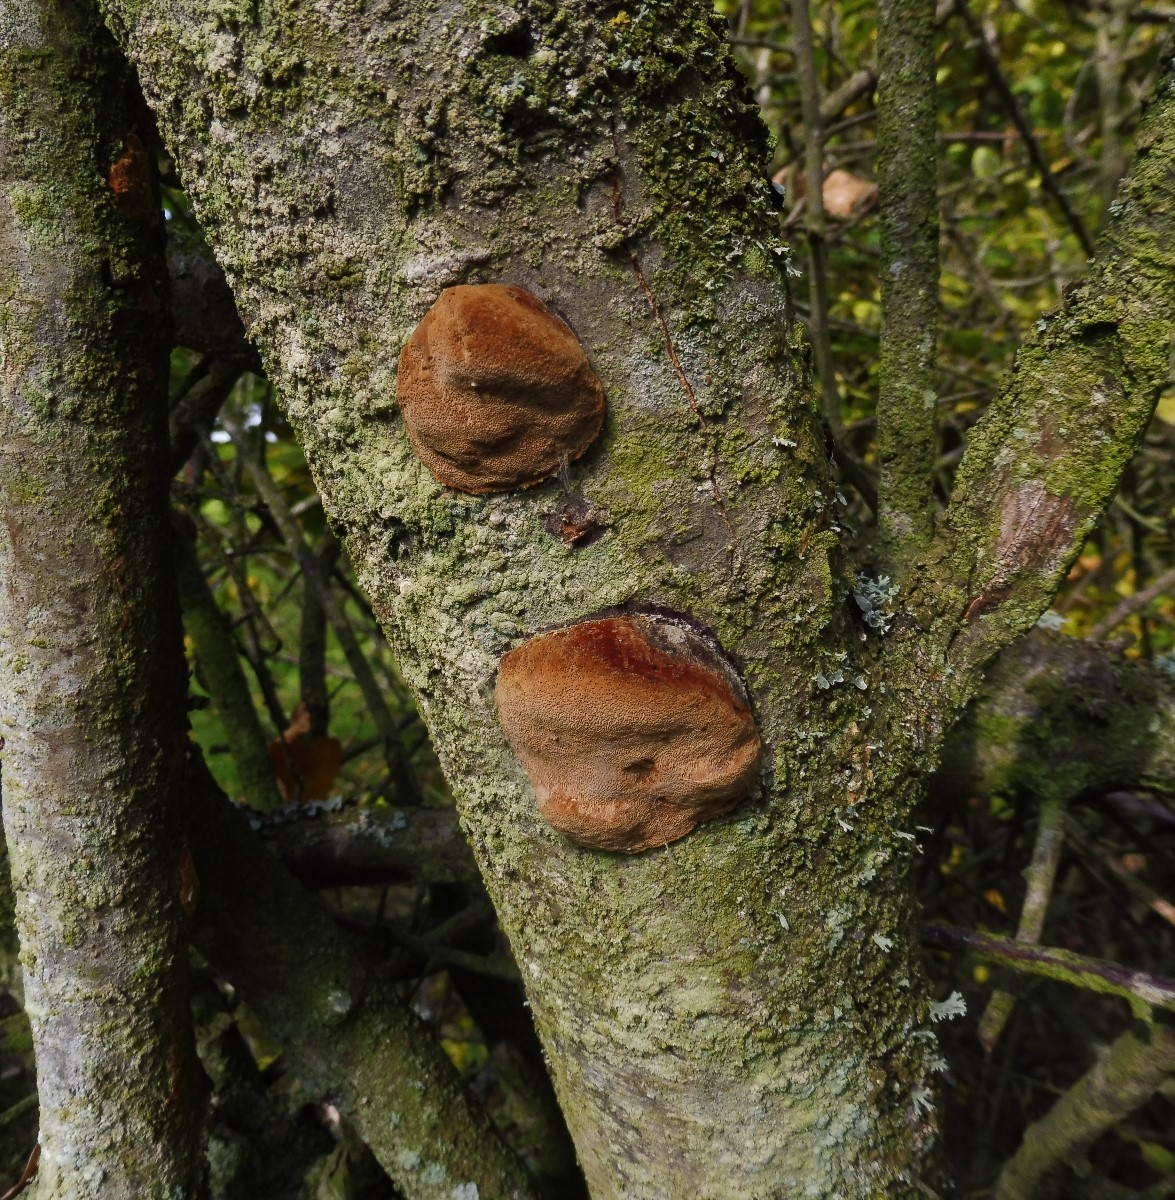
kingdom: Fungi
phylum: Basidiomycota
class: Agaricomycetes
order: Hymenochaetales
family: Hymenochaetaceae
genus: Phellinus
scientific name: Phellinus pomaceus
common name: blomme-ildporesvamp
